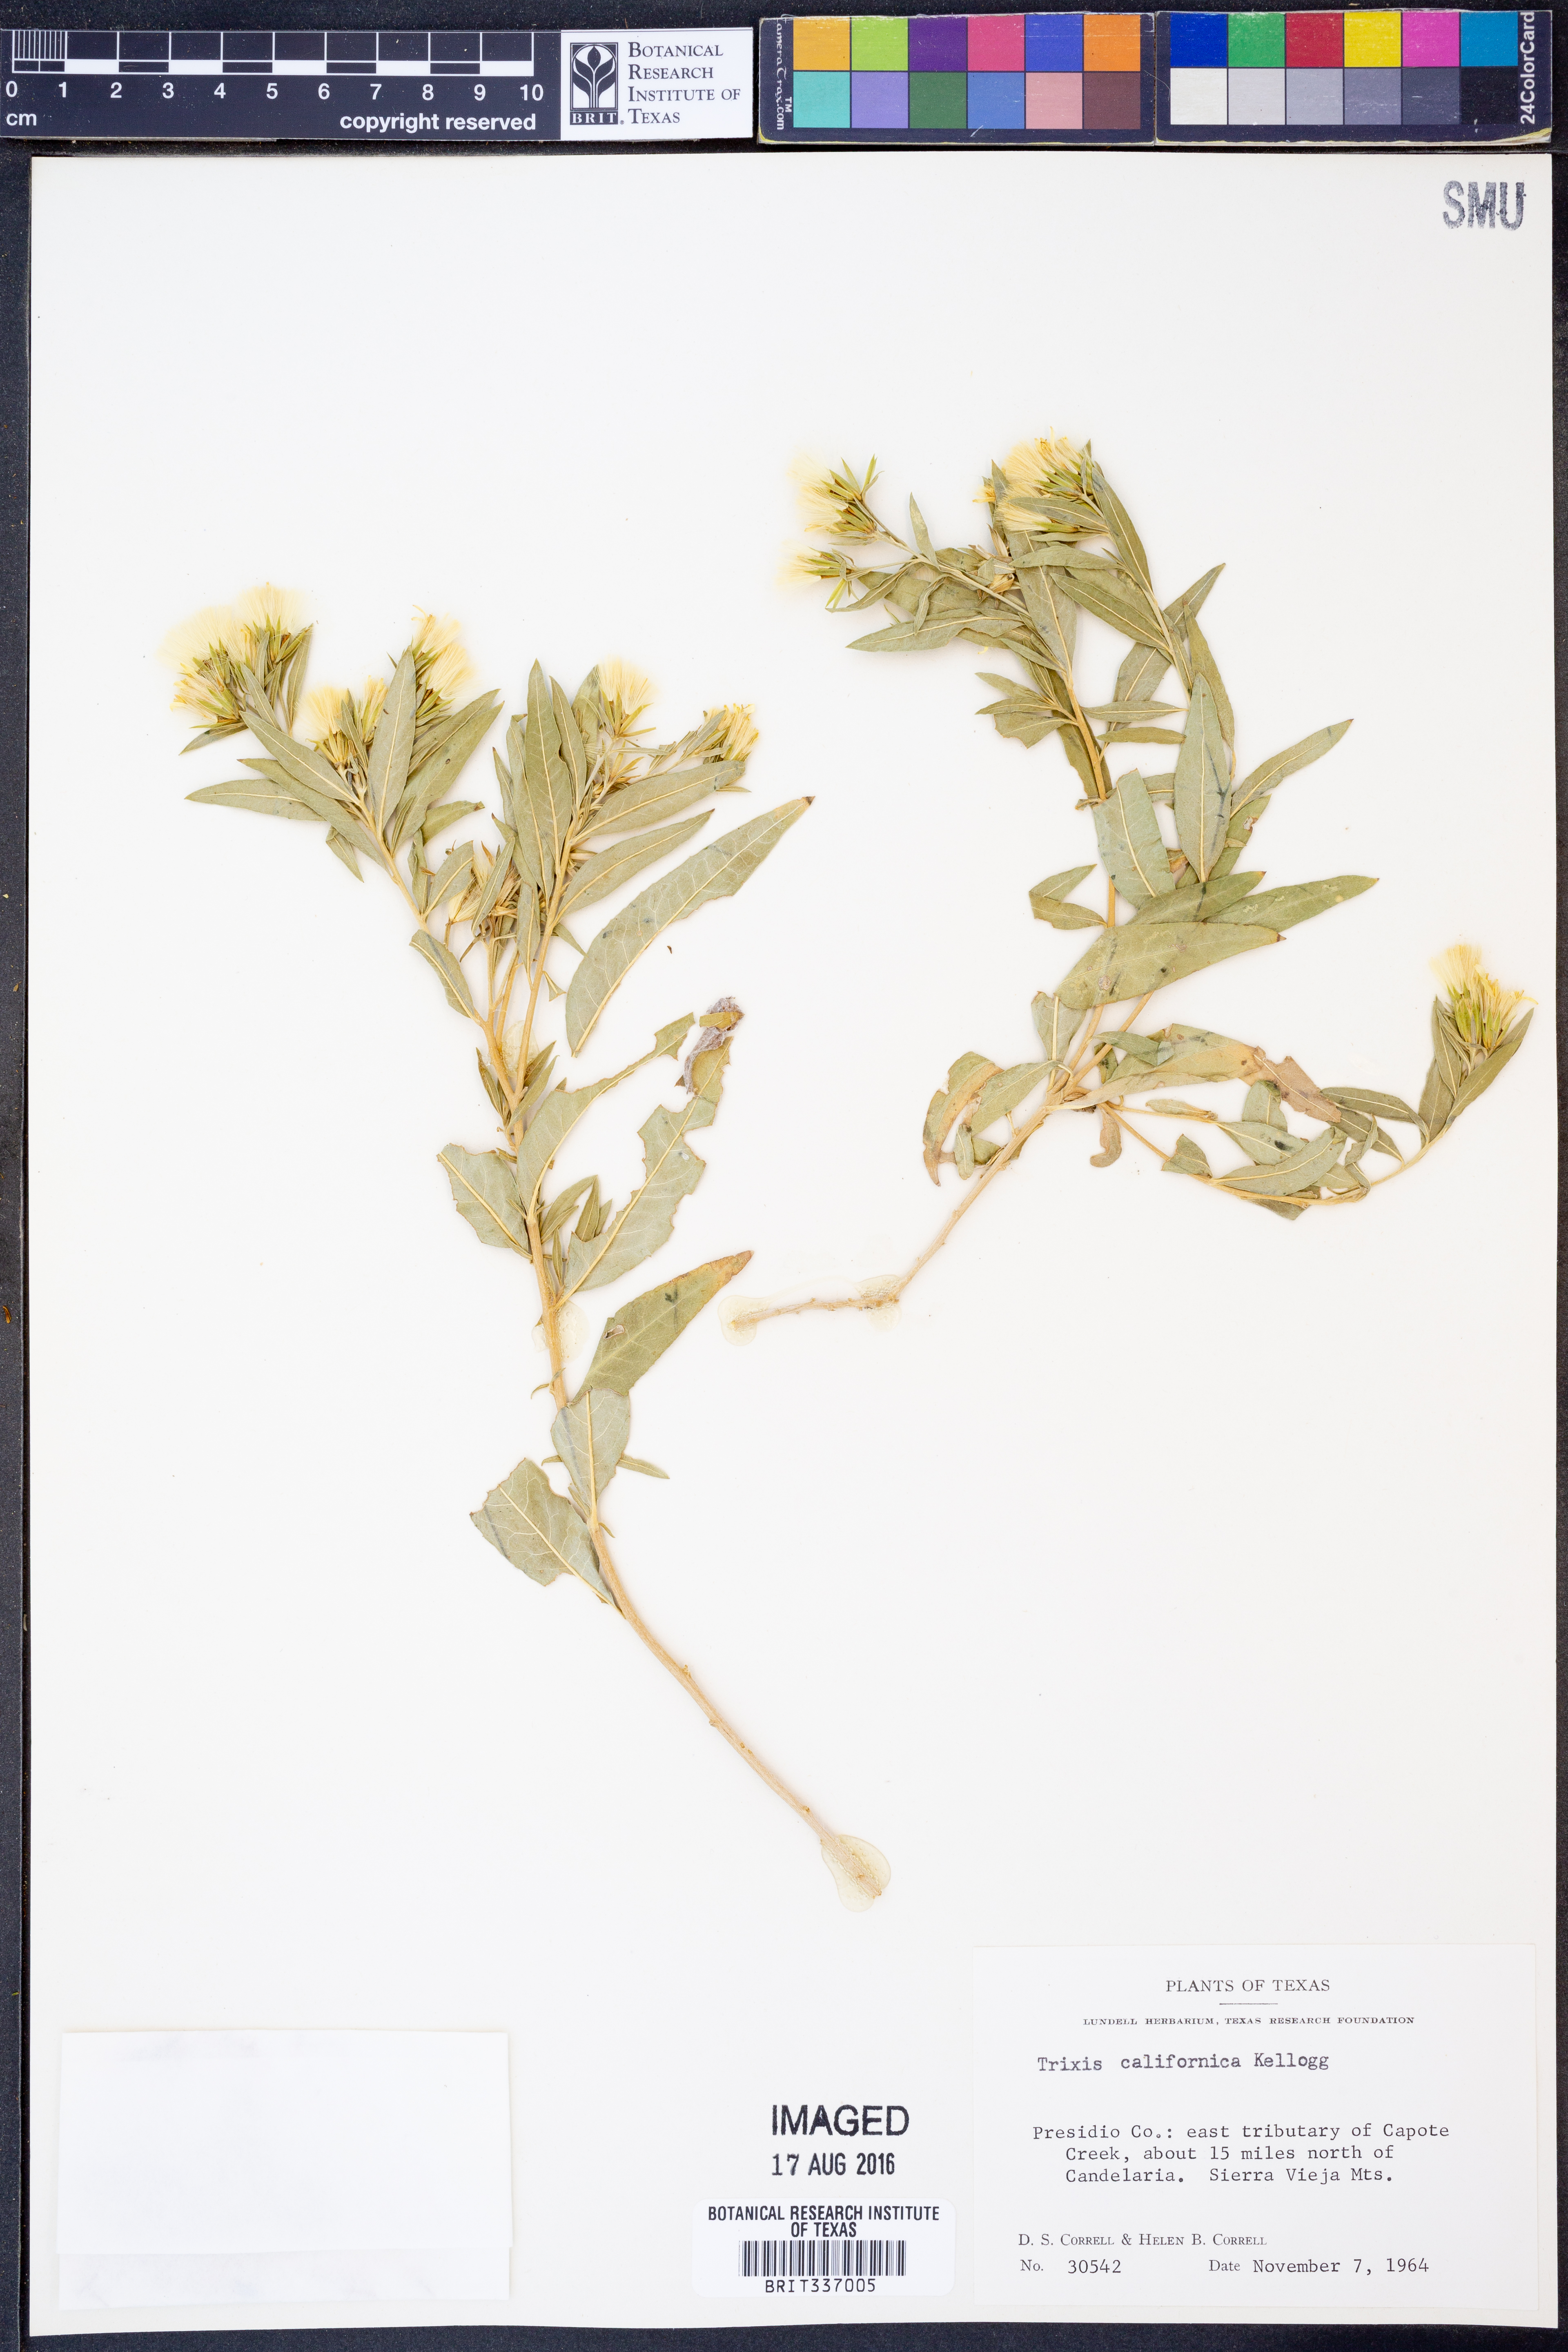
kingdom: Plantae
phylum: Tracheophyta
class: Magnoliopsida
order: Asterales
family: Asteraceae
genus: Trixis
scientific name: Trixis californica
